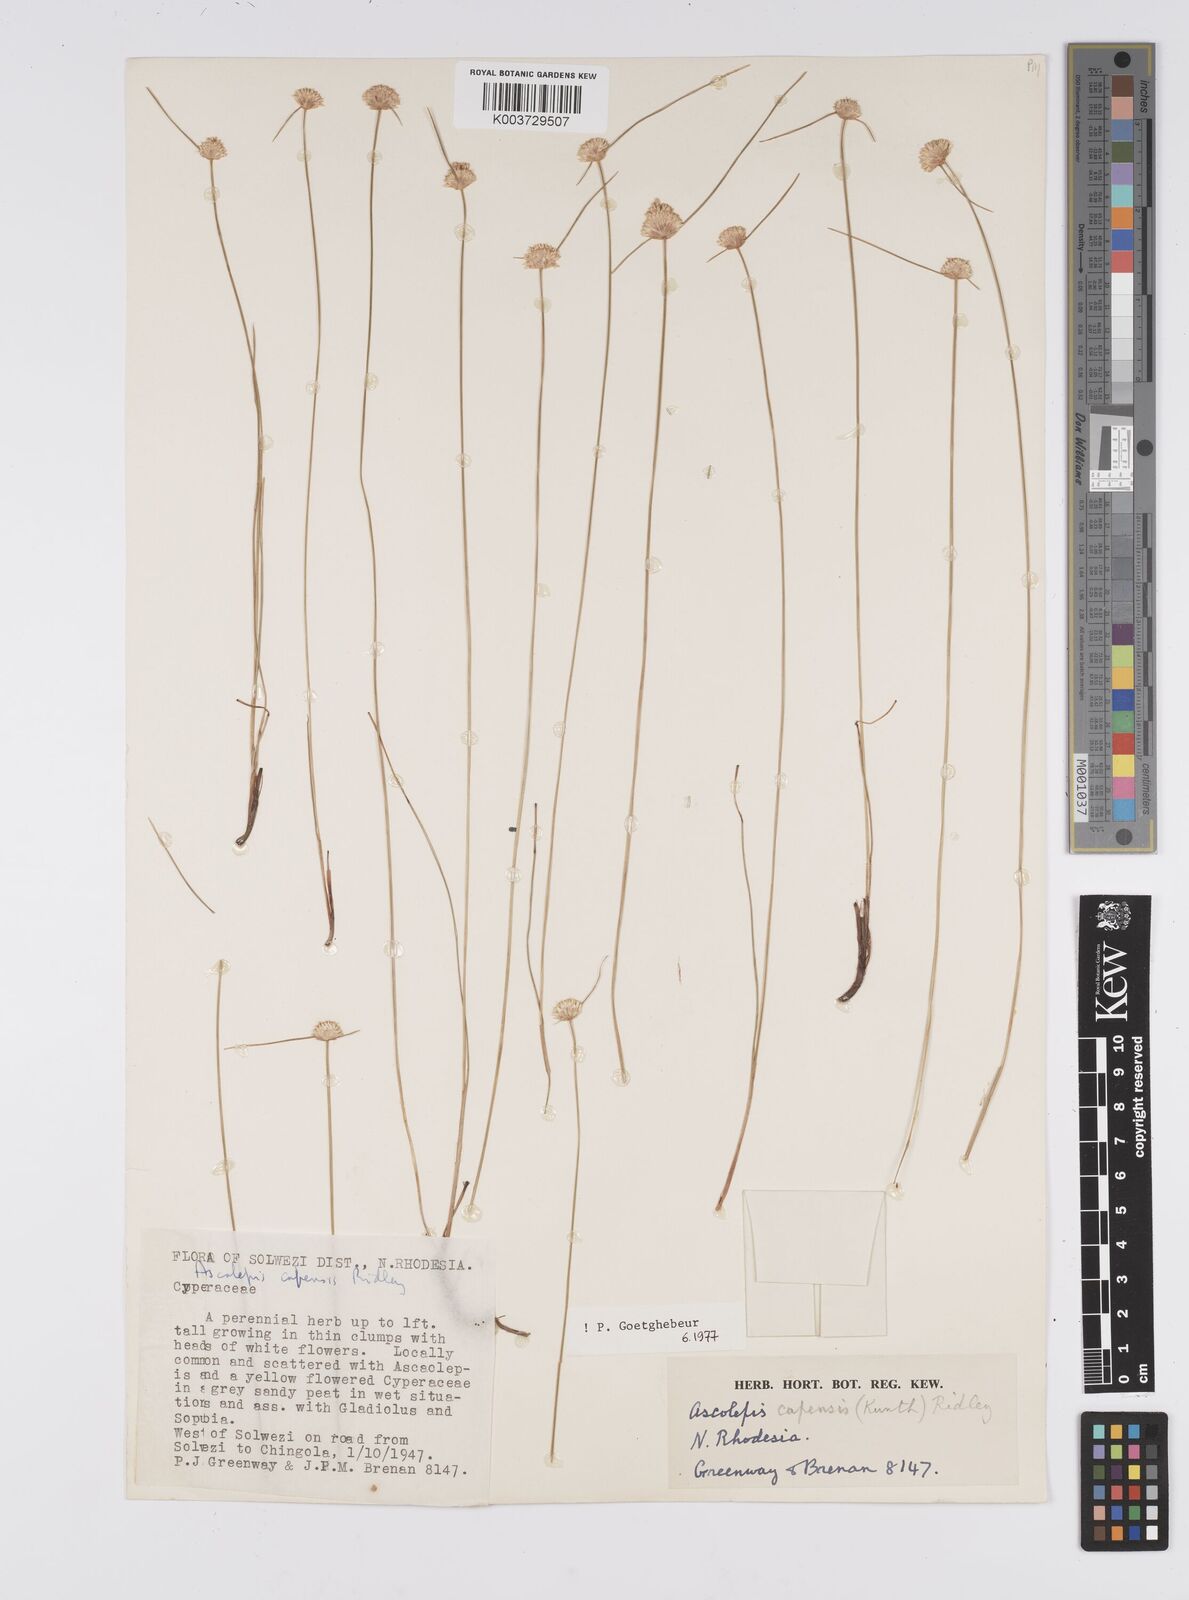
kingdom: Plantae
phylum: Tracheophyta
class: Liliopsida
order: Poales
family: Cyperaceae
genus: Cyperus
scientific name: Cyperus
